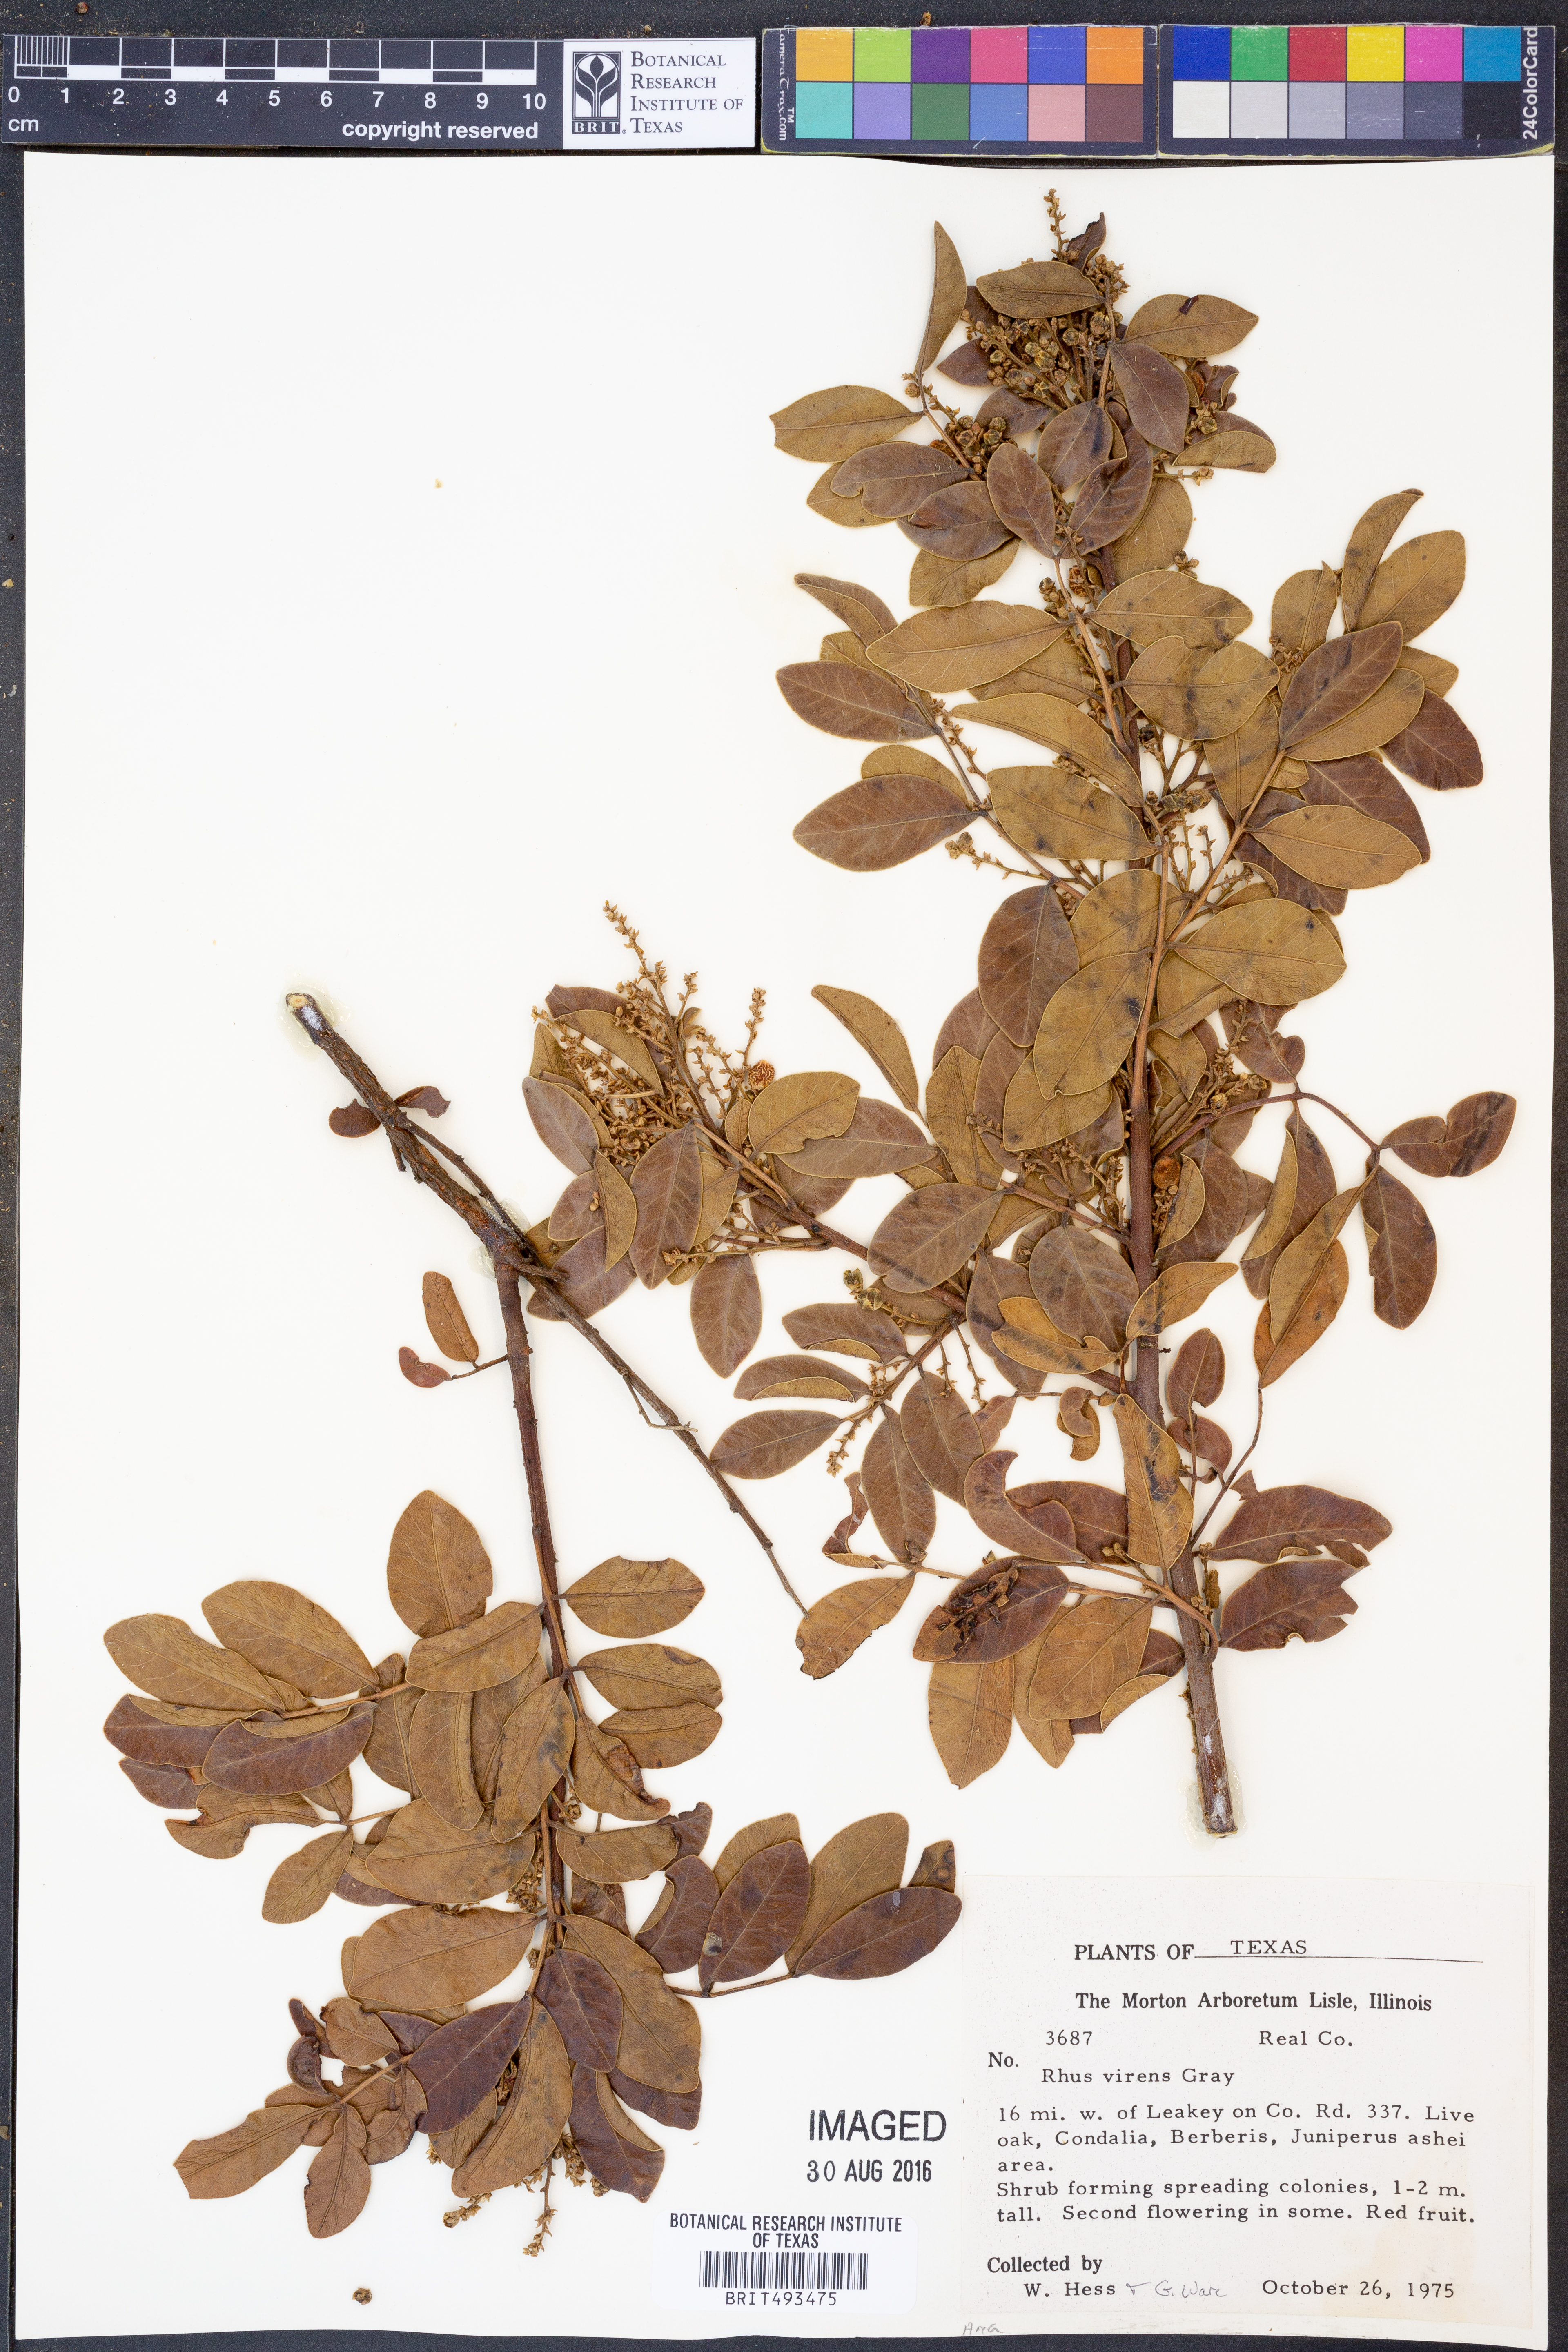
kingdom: Plantae
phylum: Tracheophyta
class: Magnoliopsida
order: Sapindales
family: Anacardiaceae
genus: Rhus
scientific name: Rhus virens
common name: Evergreen sumac
